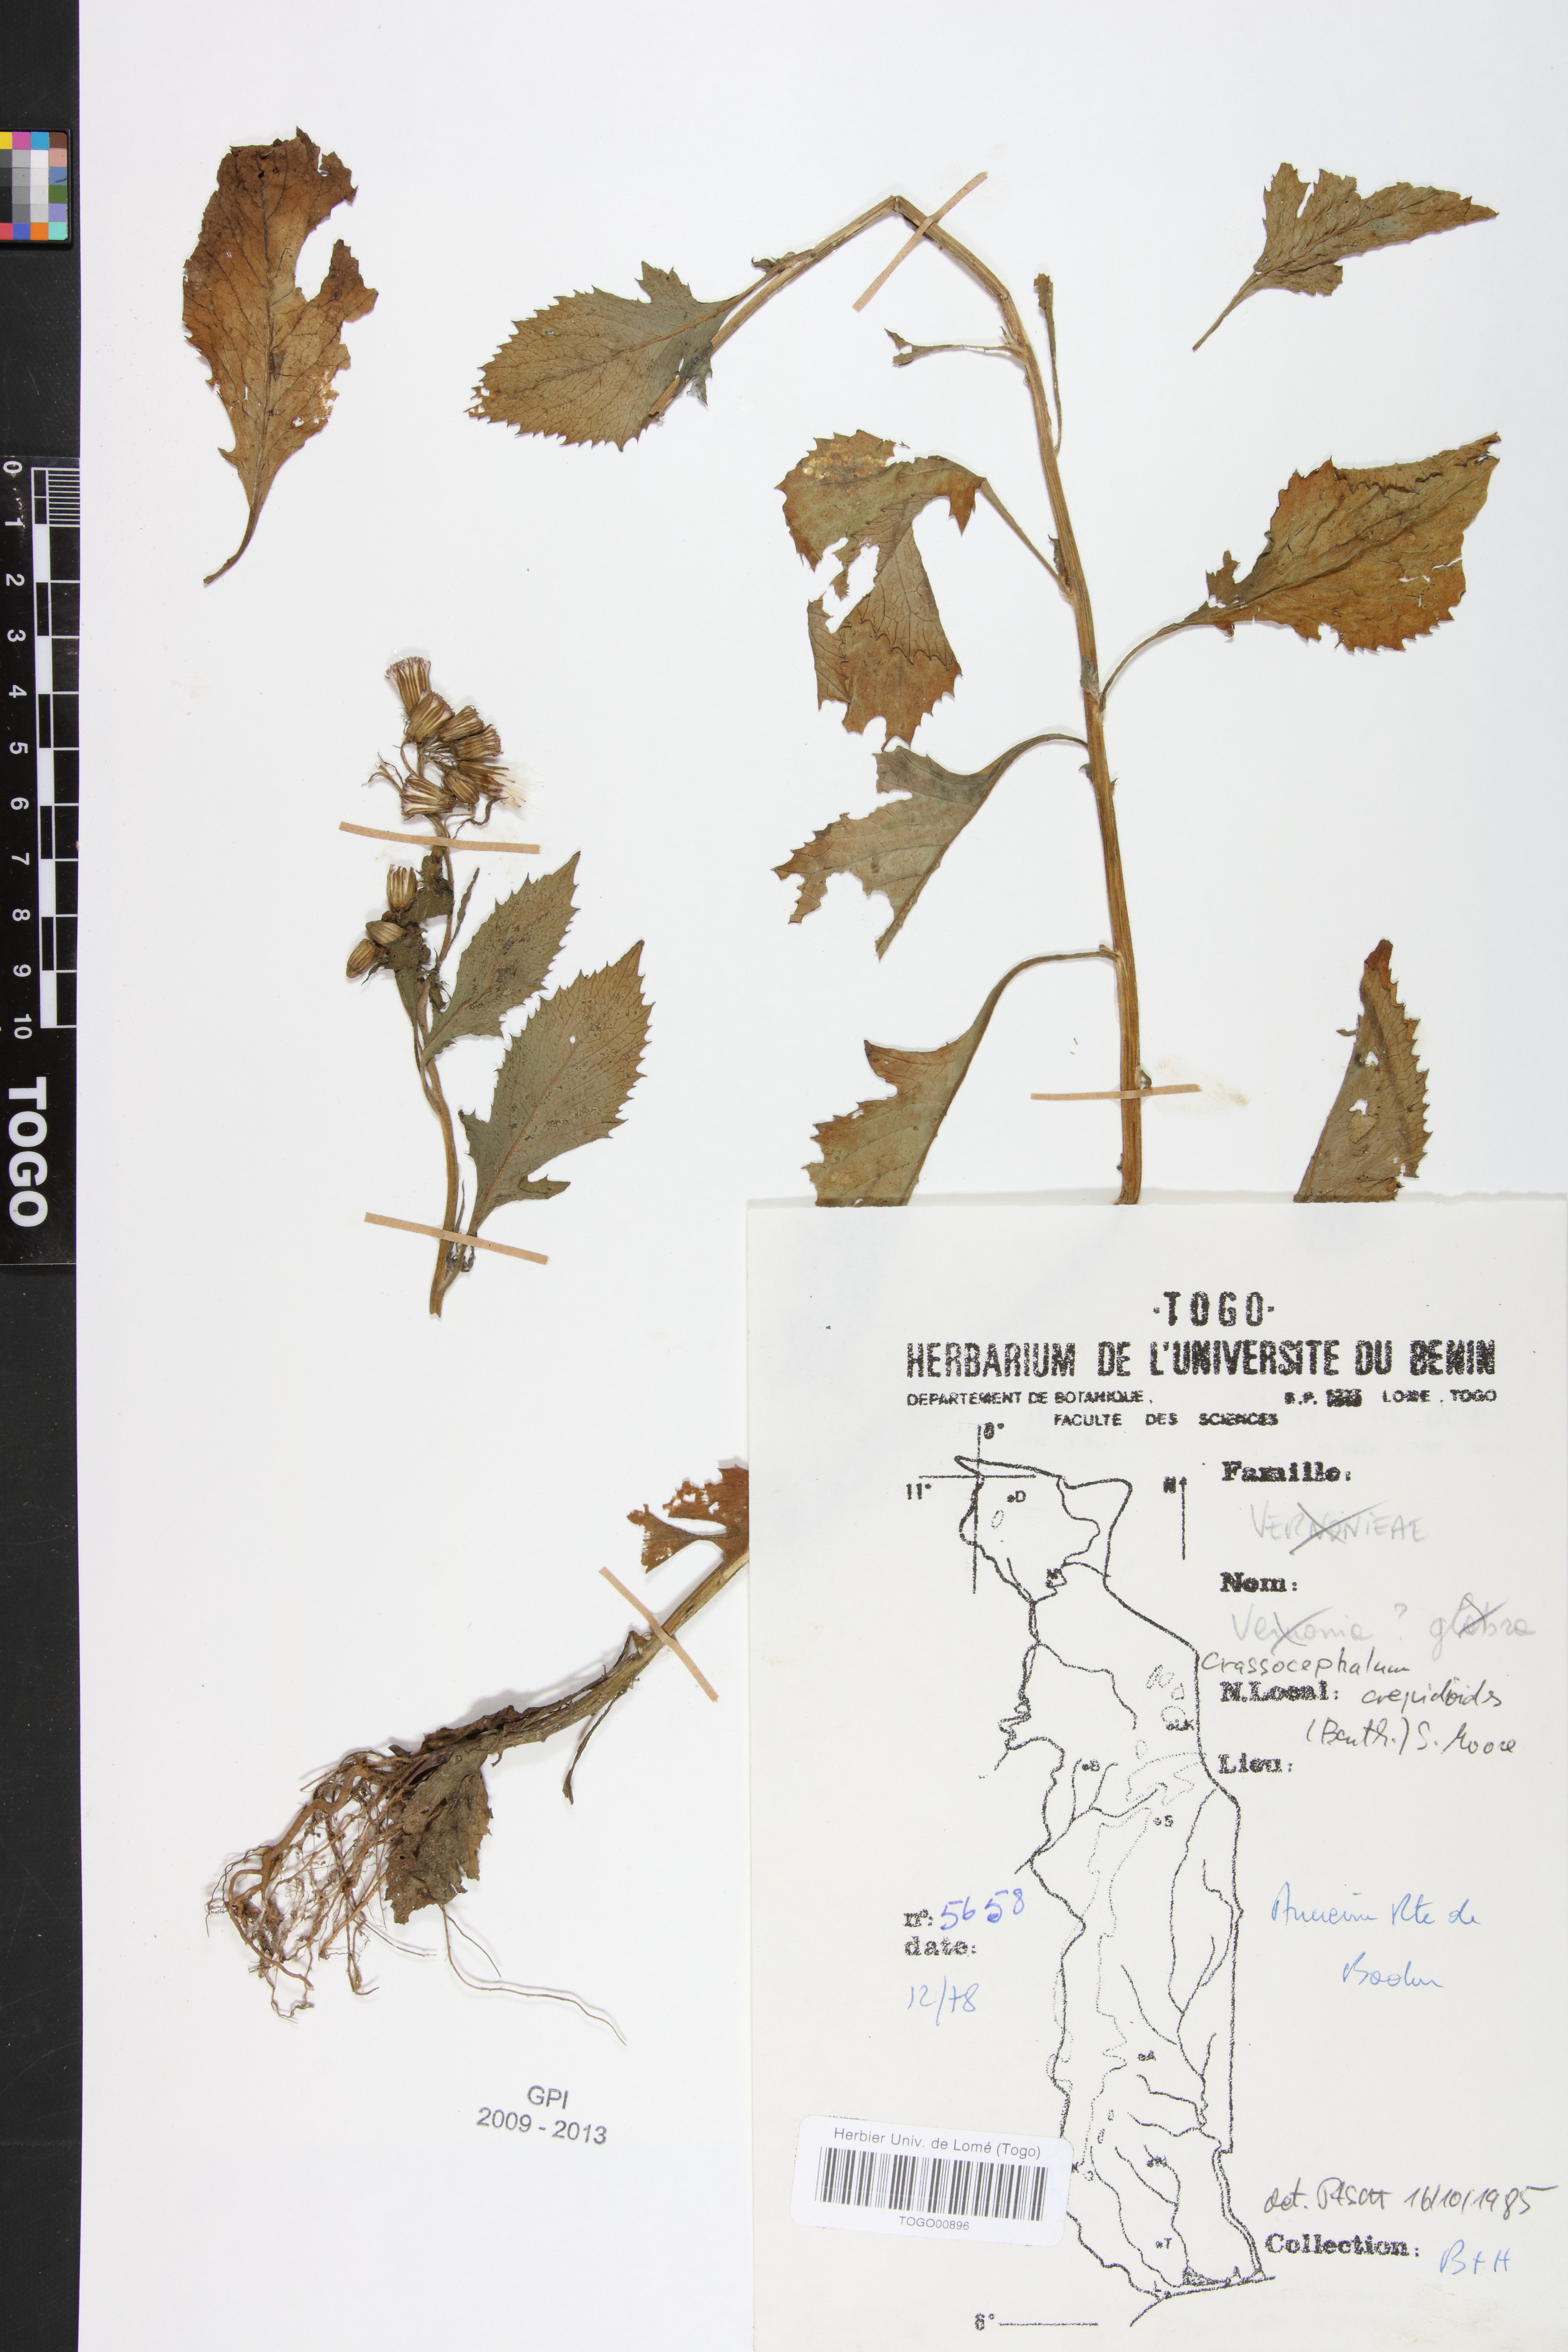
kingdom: Plantae
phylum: Tracheophyta
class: Magnoliopsida
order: Asterales
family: Asteraceae
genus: Crassocephalum
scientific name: Crassocephalum crepidioides
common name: Redflower ragleaf
